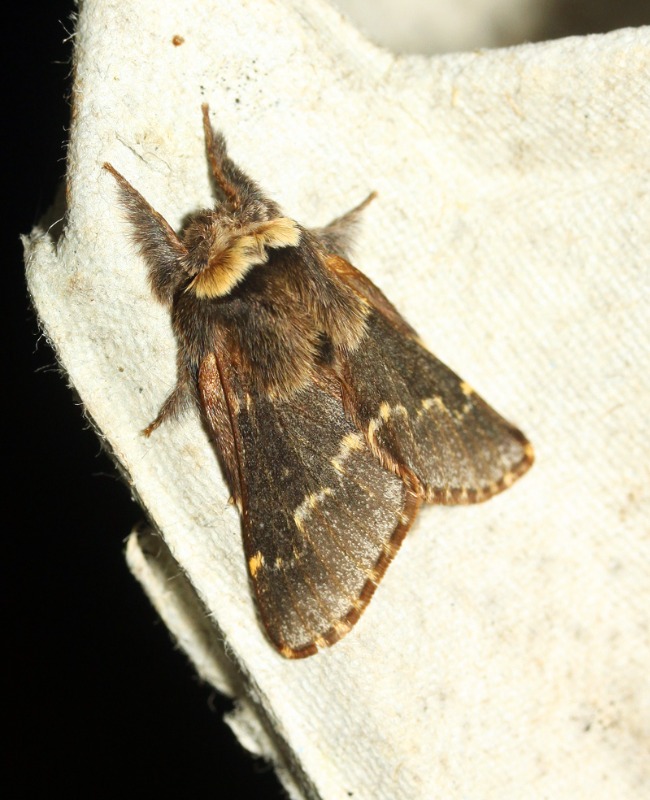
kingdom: Animalia
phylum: Arthropoda
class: Insecta
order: Lepidoptera
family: Lasiocampidae
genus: Poecilocampa
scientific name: Poecilocampa populi
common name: Poppelspinder
